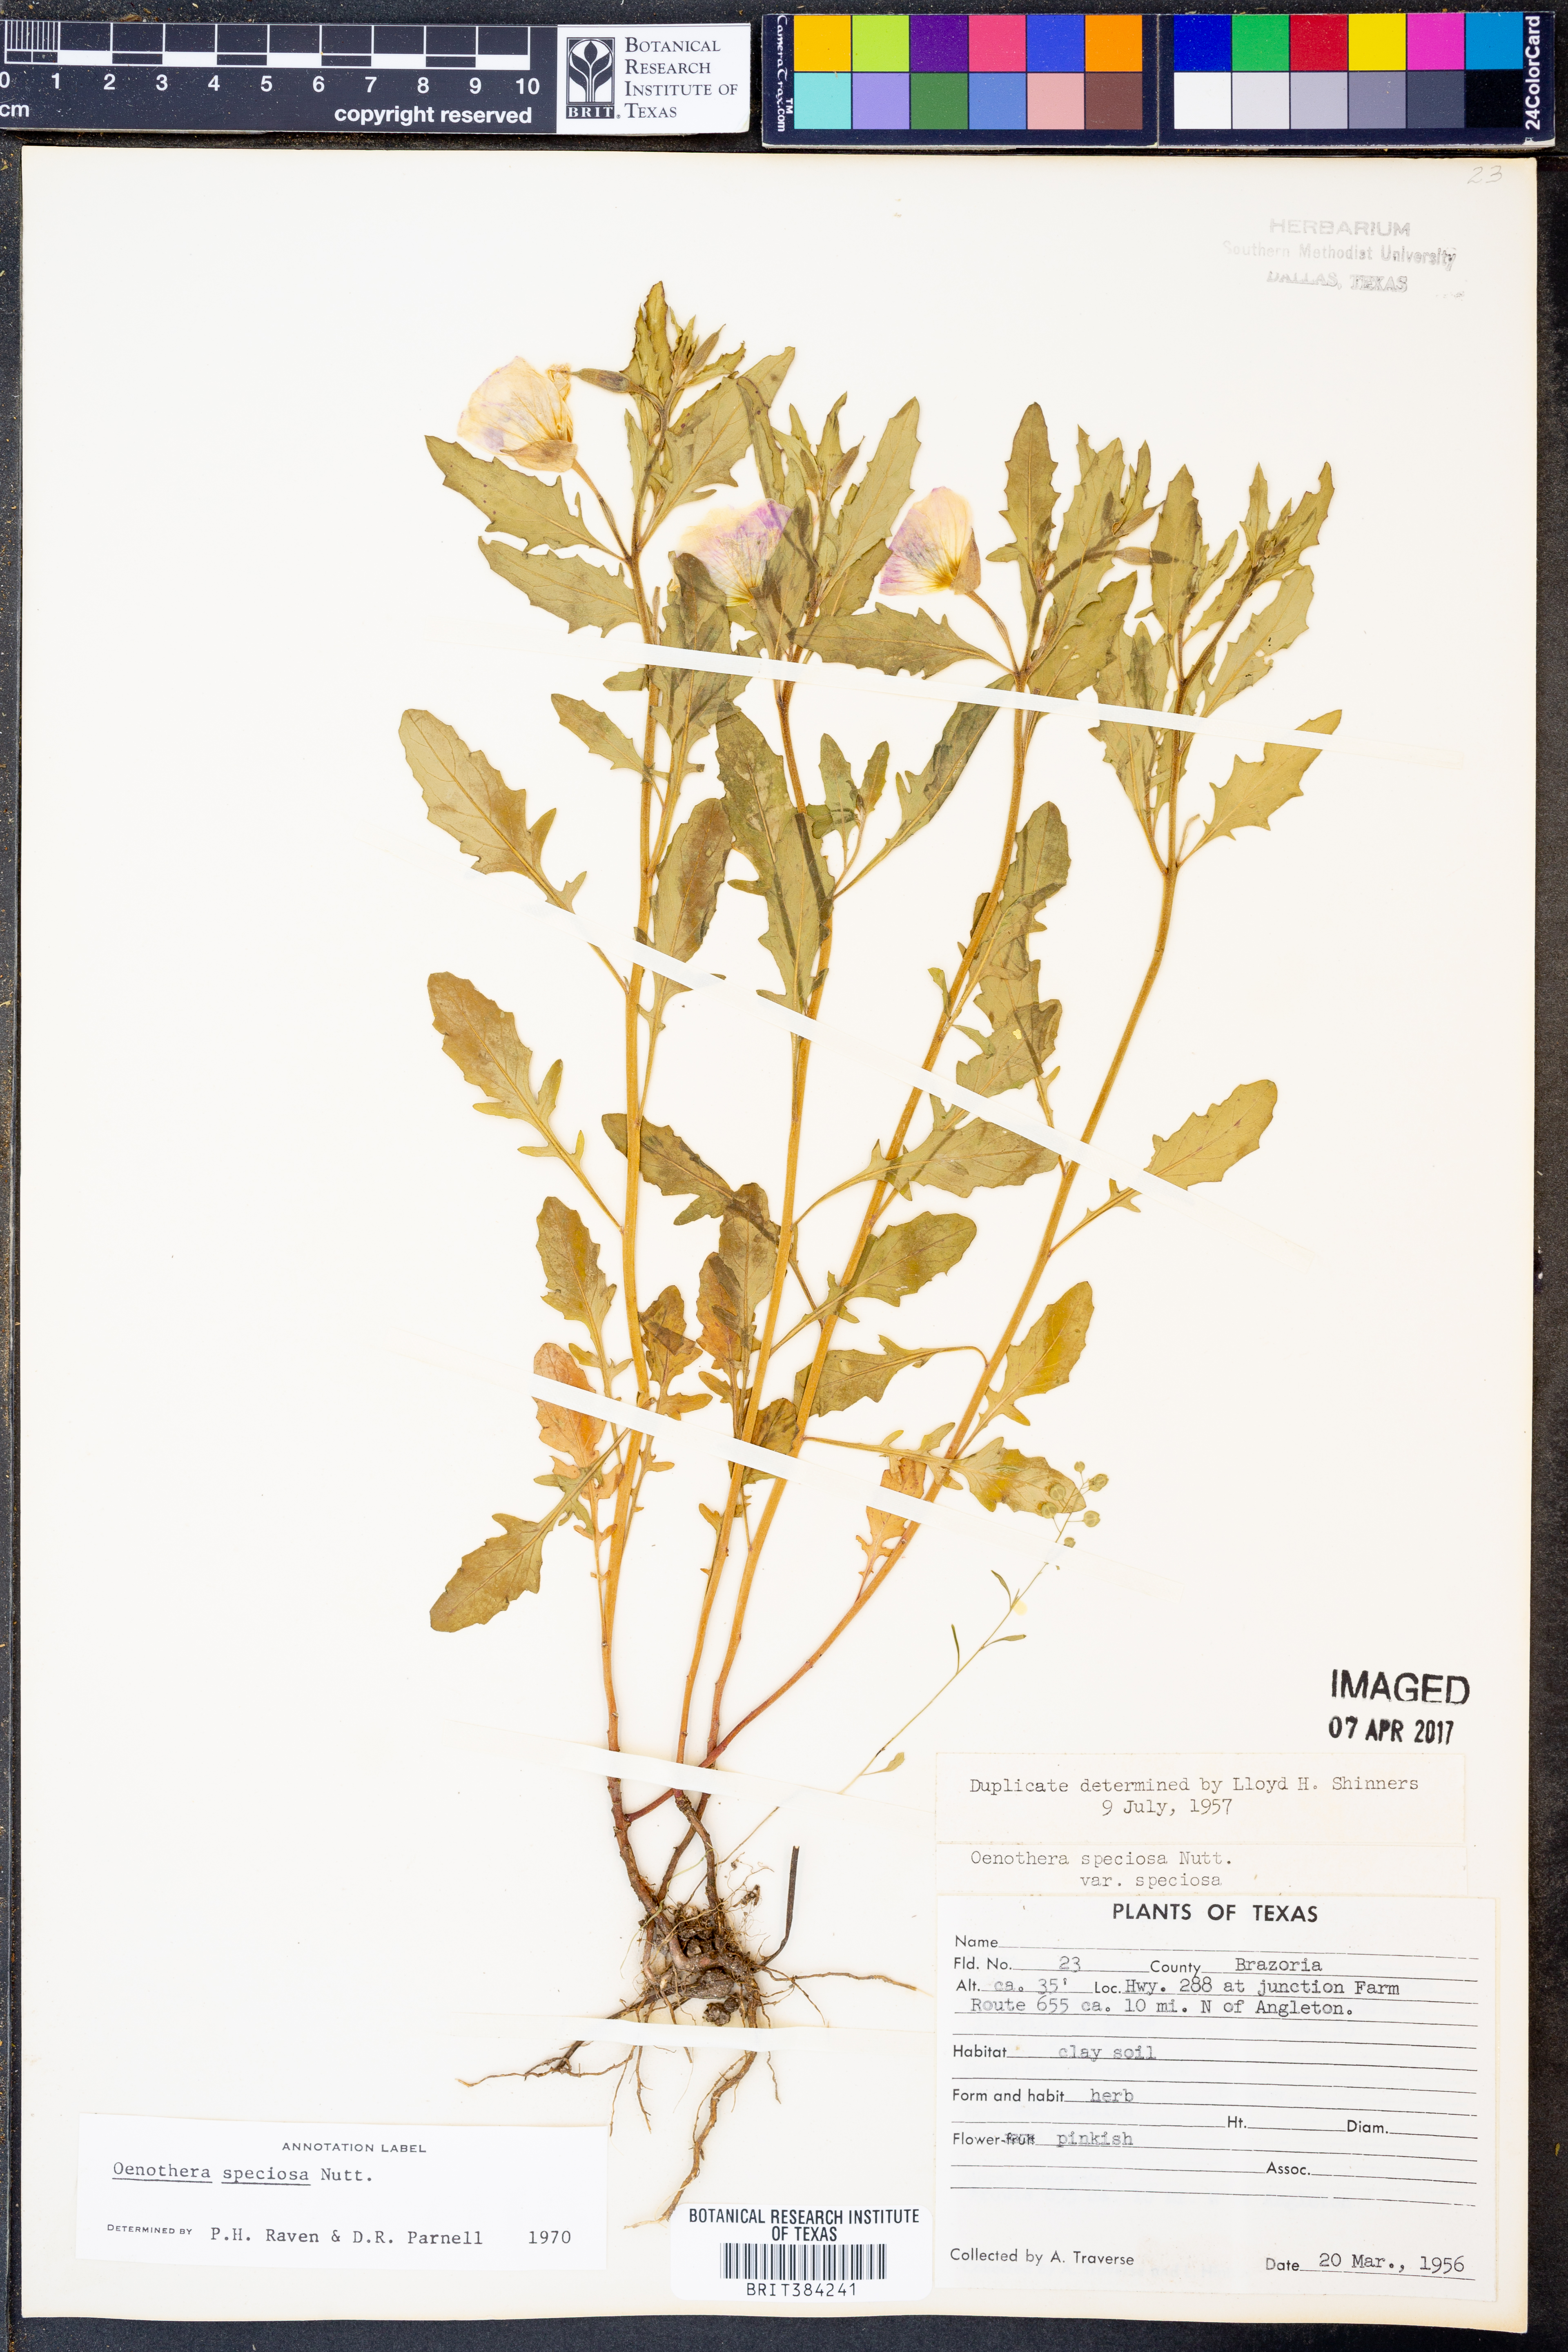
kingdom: Plantae
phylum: Tracheophyta
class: Magnoliopsida
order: Myrtales
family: Onagraceae
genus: Oenothera
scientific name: Oenothera speciosa
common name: White evening-primrose
